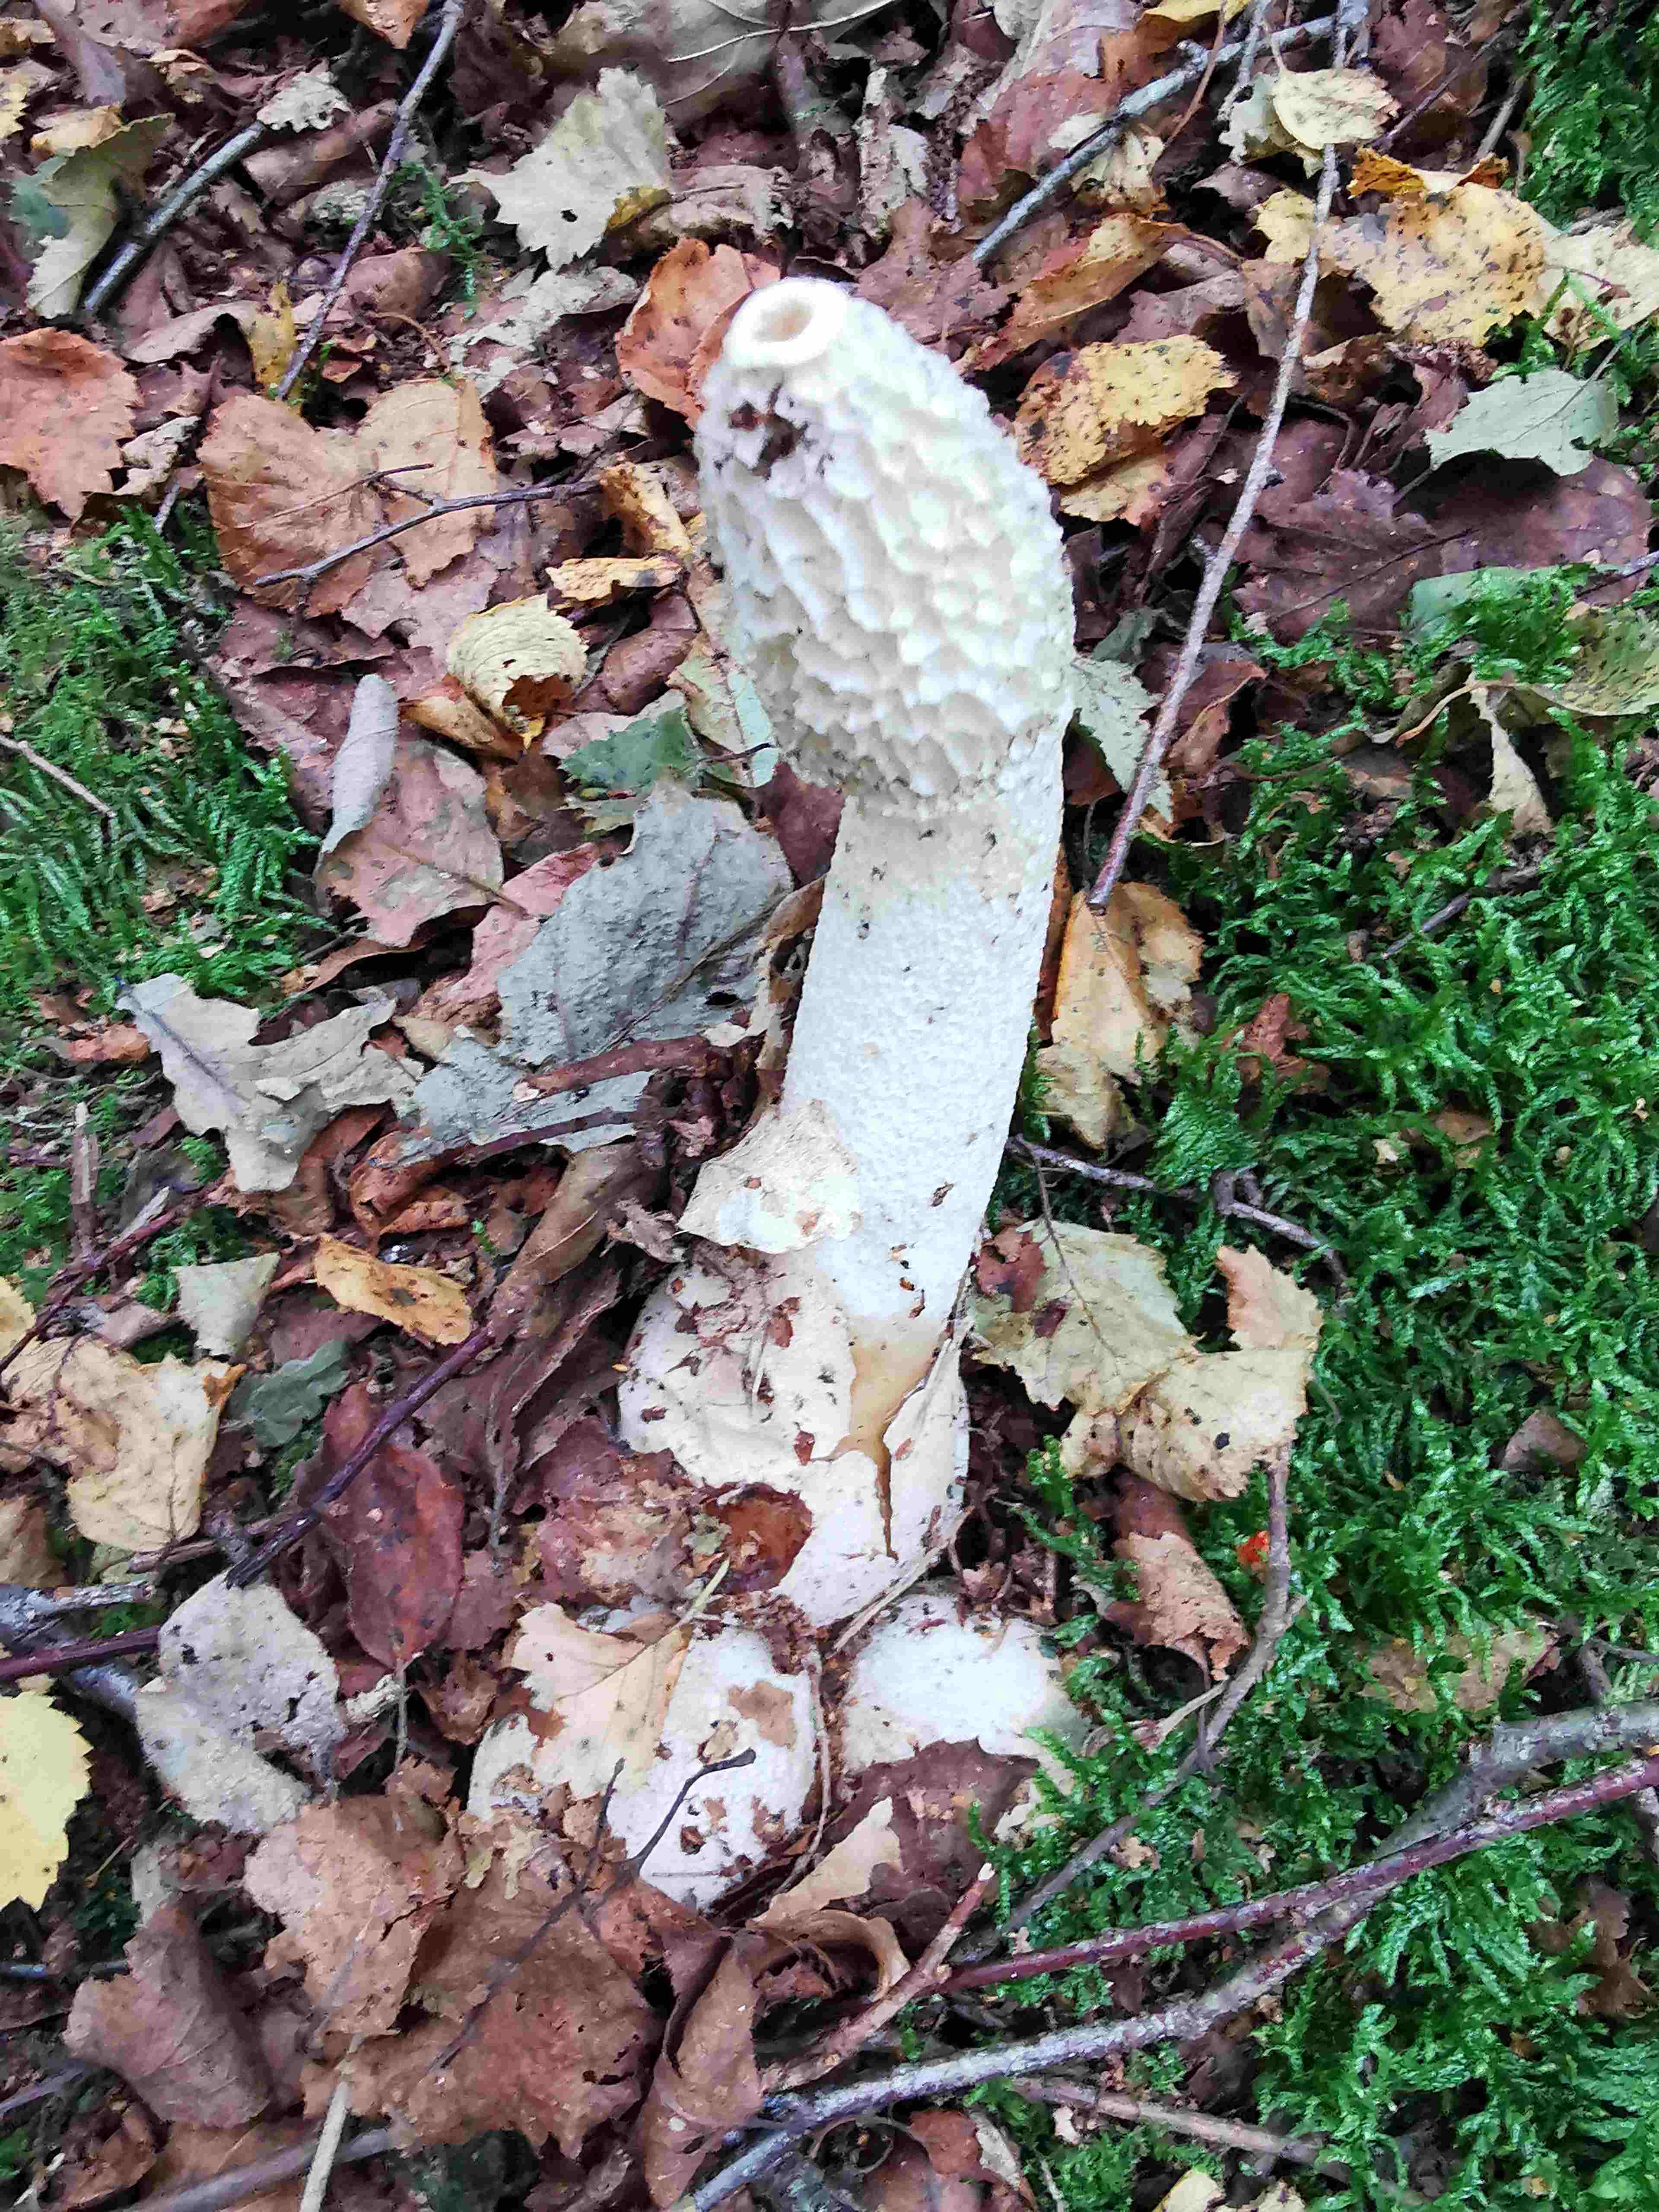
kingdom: Fungi
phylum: Basidiomycota
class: Agaricomycetes
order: Phallales
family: Phallaceae
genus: Phallus
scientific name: Phallus impudicus
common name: almindelig stinksvamp
